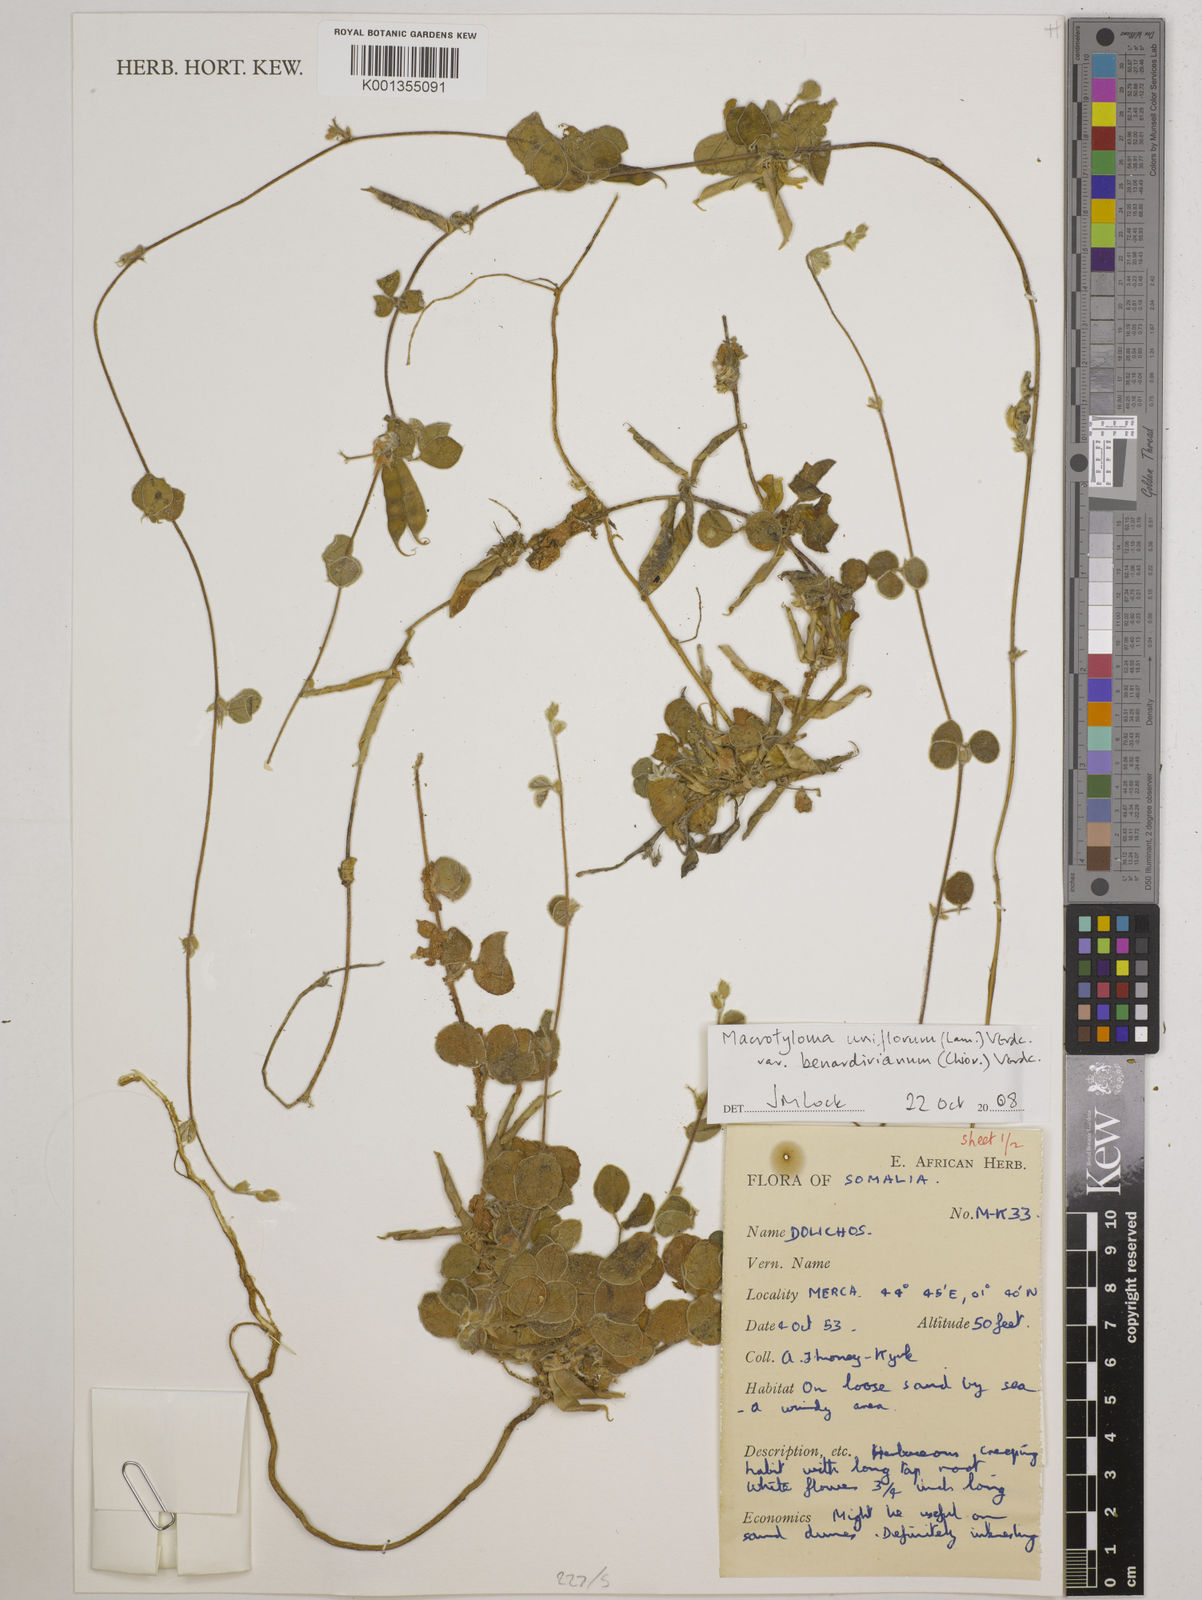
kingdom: Plantae
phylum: Tracheophyta
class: Magnoliopsida
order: Fabales
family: Fabaceae
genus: Macrotyloma
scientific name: Macrotyloma
